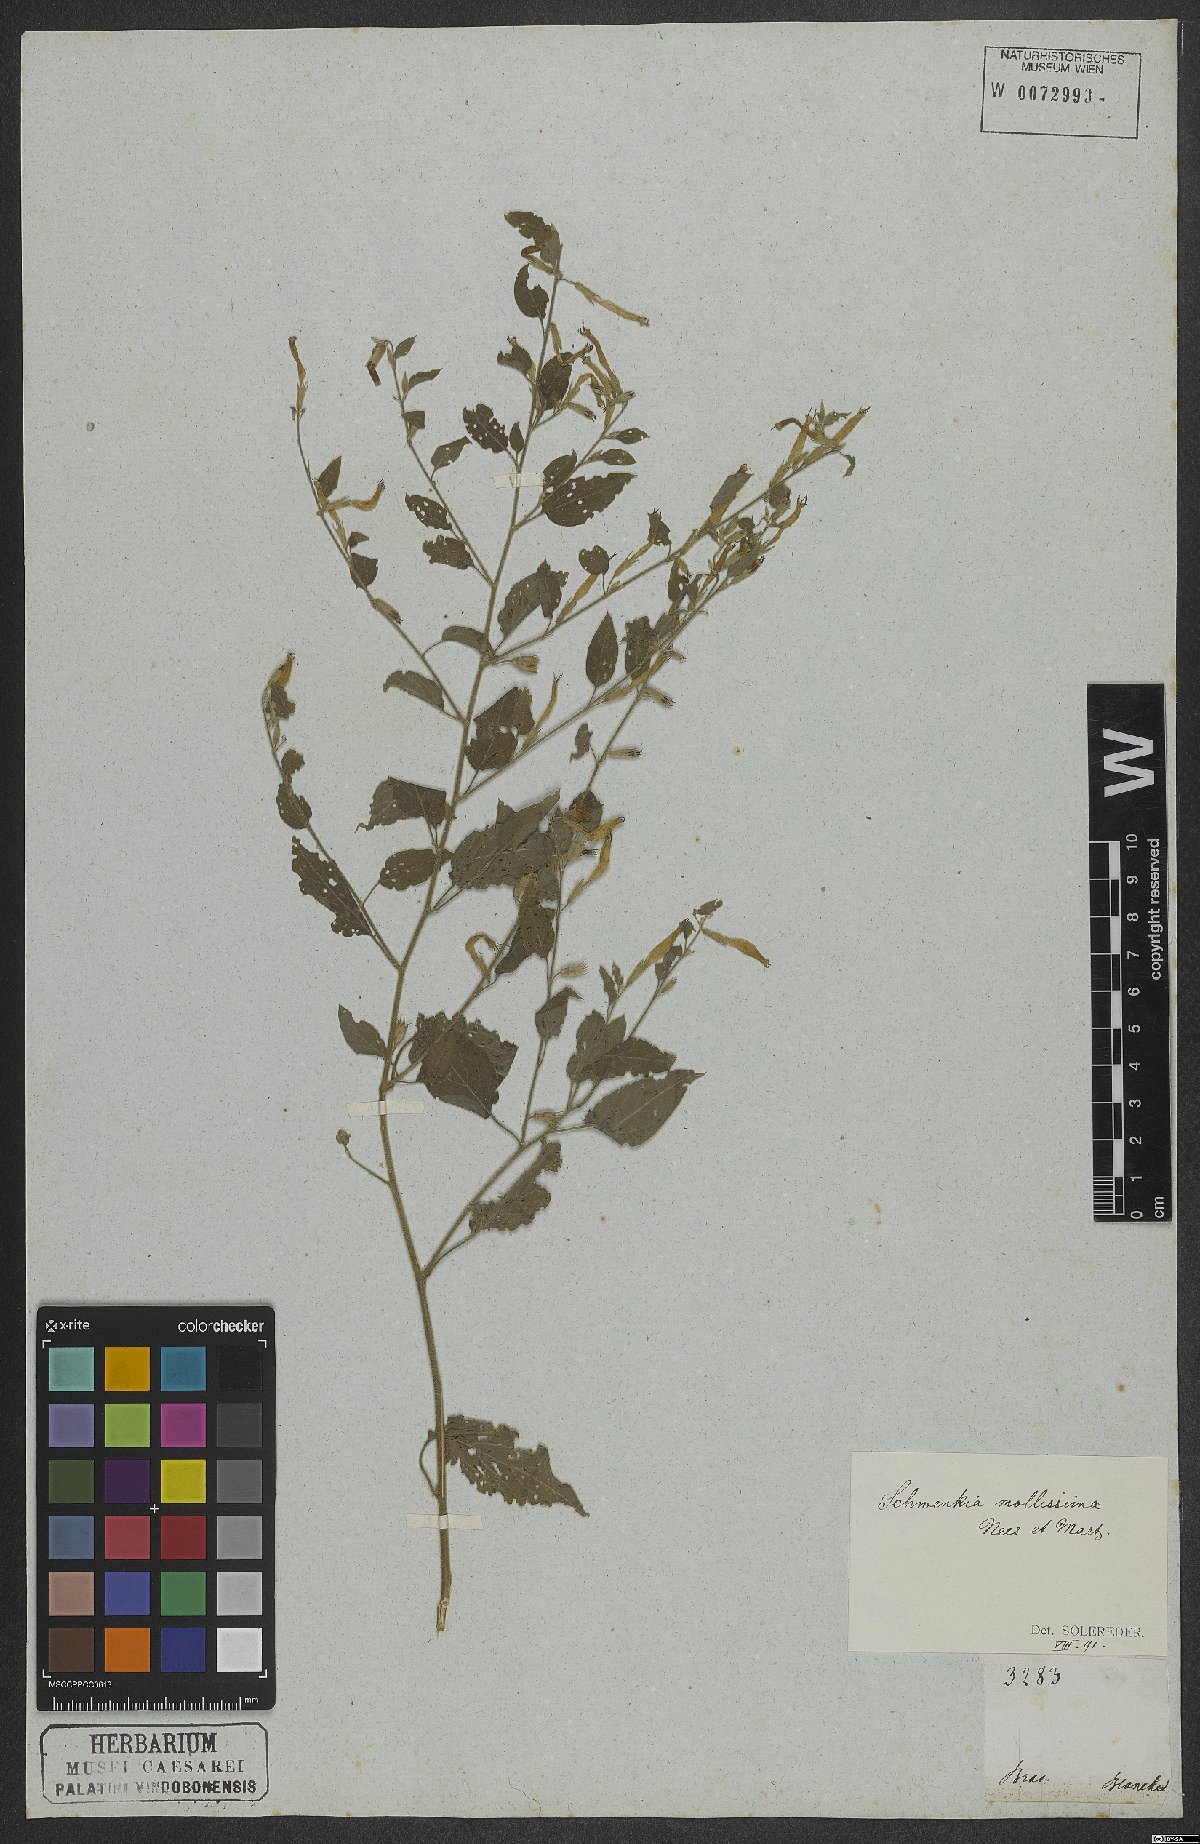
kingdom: Plantae
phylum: Tracheophyta
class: Magnoliopsida
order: Solanales
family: Solanaceae
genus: Schwenckia
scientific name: Schwenckia paniculata
